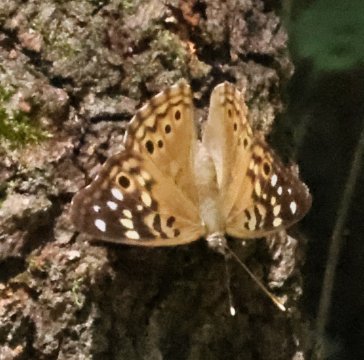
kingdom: Animalia
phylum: Arthropoda
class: Insecta
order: Lepidoptera
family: Nymphalidae
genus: Asterocampa
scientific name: Asterocampa celtis
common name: Hackberry Emperor
